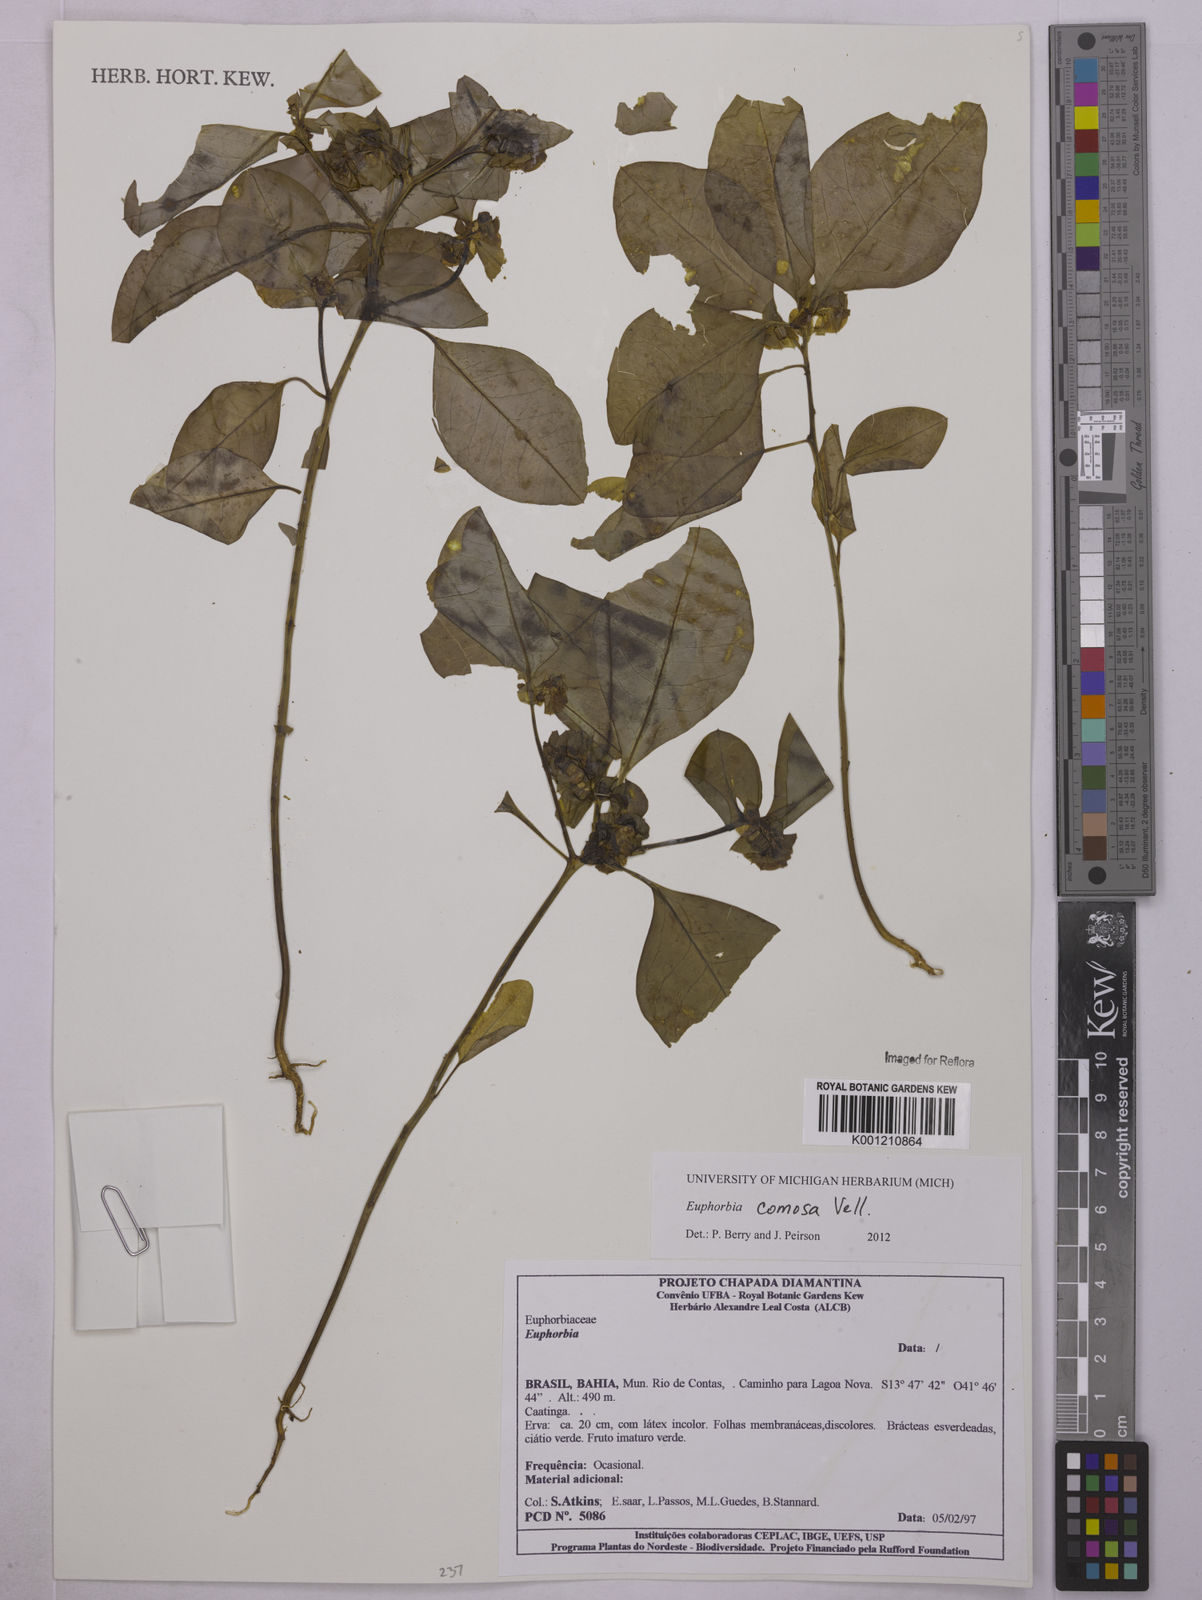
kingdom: Plantae
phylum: Tracheophyta
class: Magnoliopsida
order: Malpighiales
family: Euphorbiaceae
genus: Euphorbia
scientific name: Euphorbia comosa
